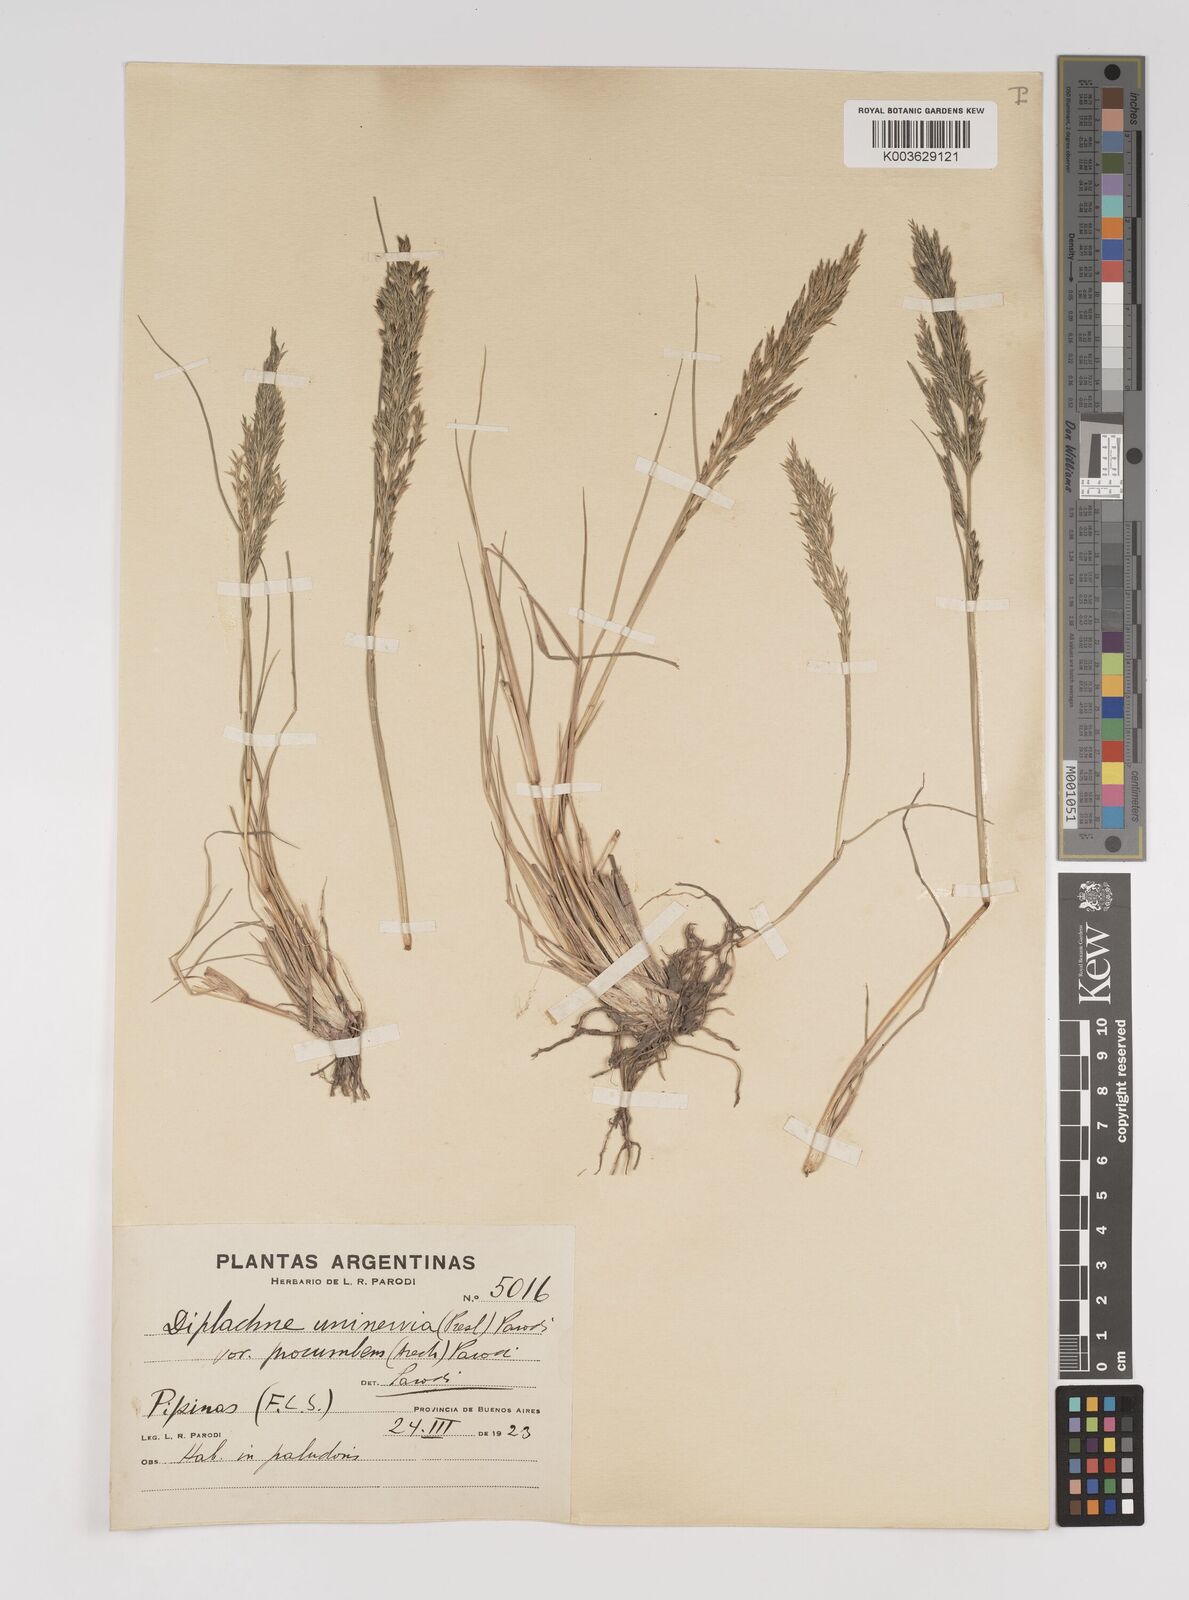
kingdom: Plantae
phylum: Tracheophyta
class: Liliopsida
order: Poales
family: Poaceae
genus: Diplachne
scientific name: Diplachne fusca
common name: Brown beetle grass
